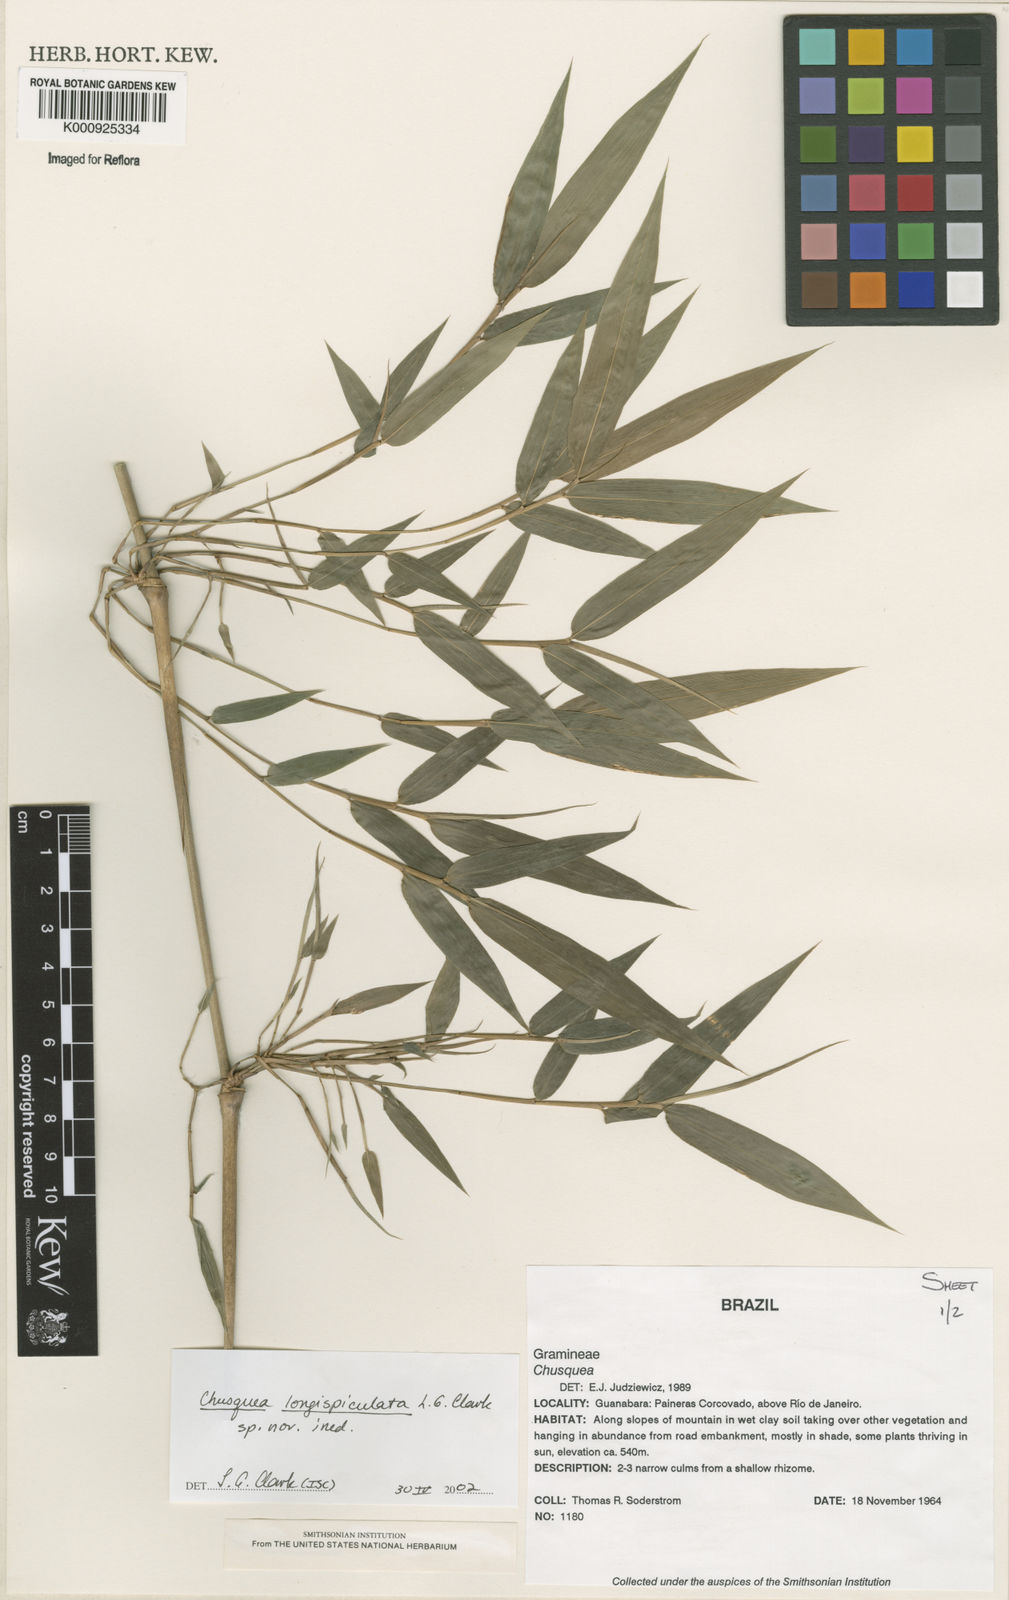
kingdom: Plantae
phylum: Tracheophyta
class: Liliopsida
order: Poales
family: Poaceae
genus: Chusquea
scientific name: Chusquea longispiculata
